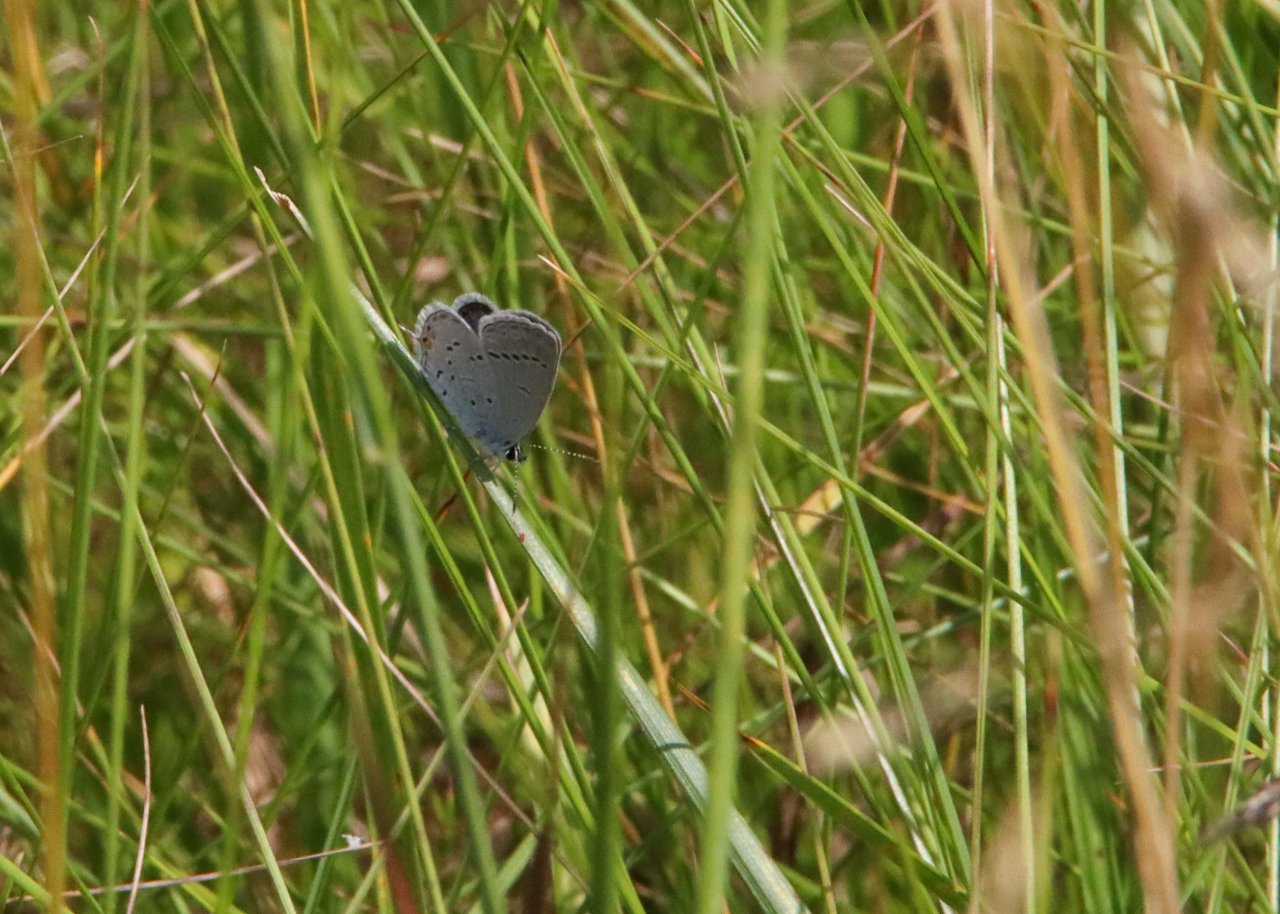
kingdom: Animalia
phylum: Arthropoda
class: Insecta
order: Lepidoptera
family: Lycaenidae
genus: Elkalyce
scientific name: Elkalyce comyntas
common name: Eastern Tailed-Blue
